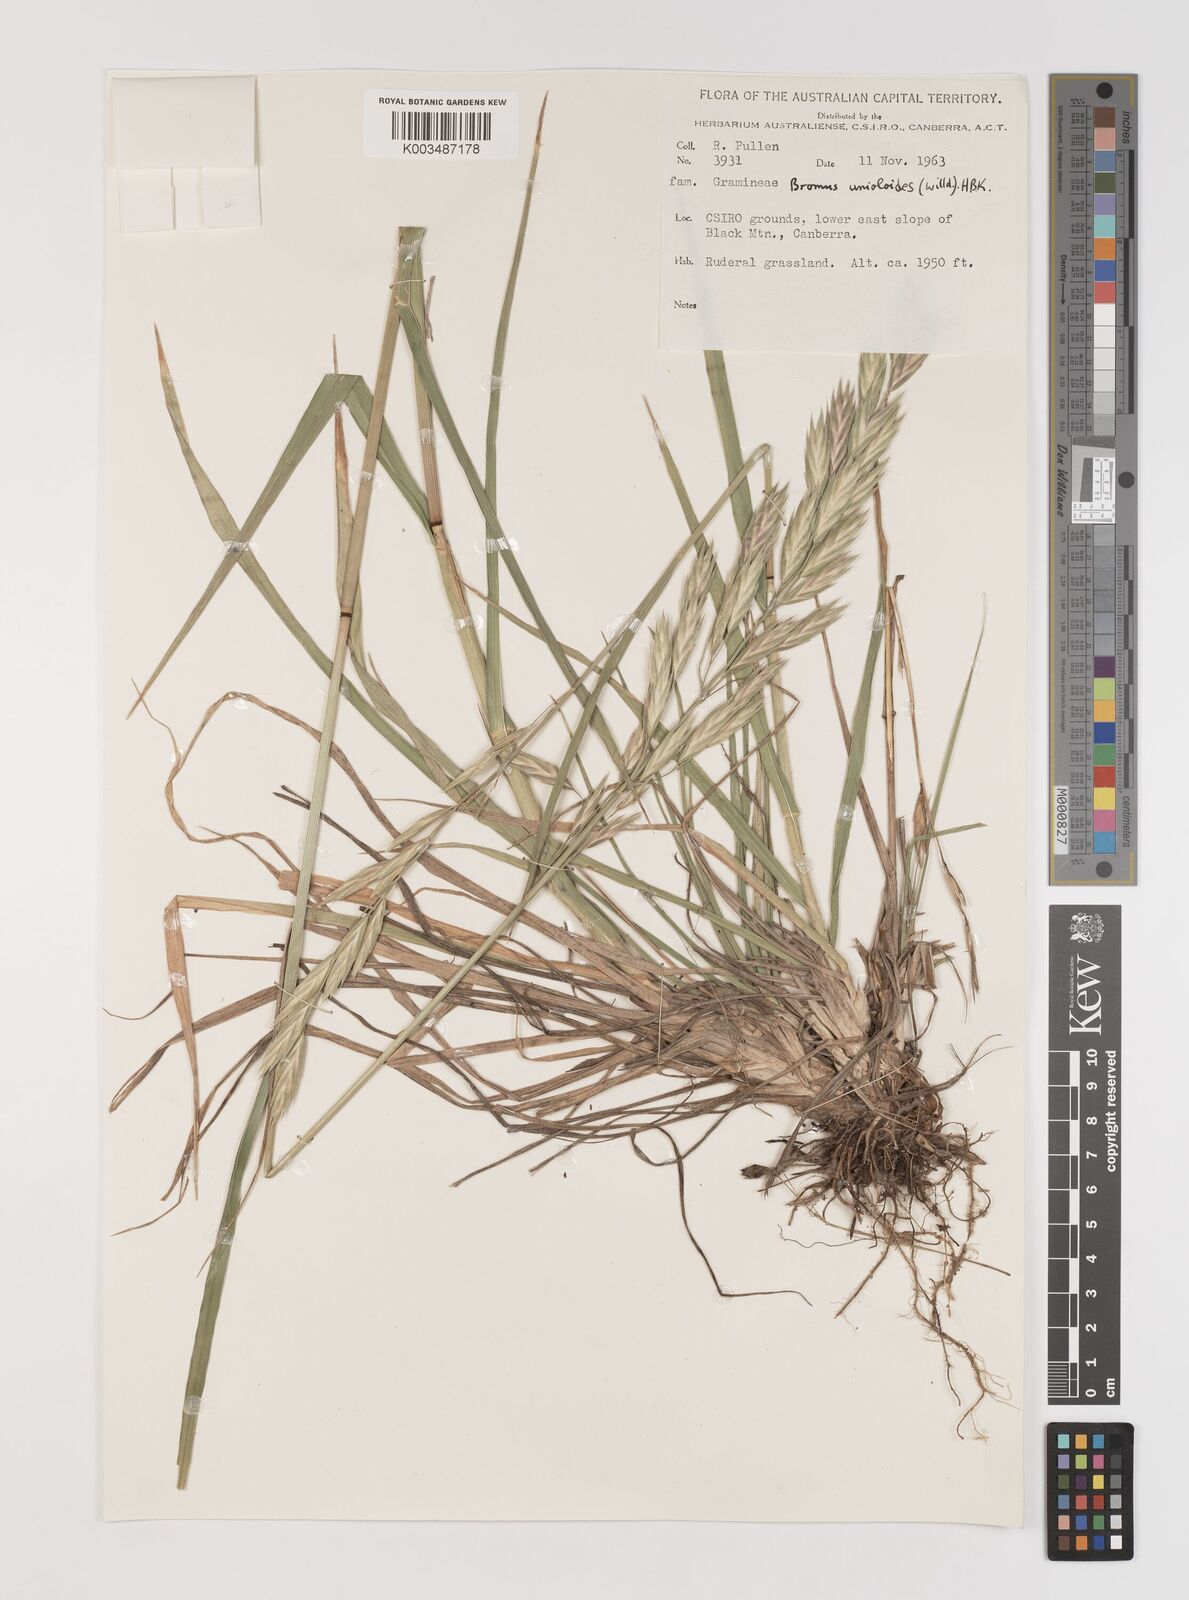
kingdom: Plantae
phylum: Tracheophyta
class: Liliopsida
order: Poales
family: Poaceae
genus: Bromus
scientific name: Bromus catharticus
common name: Rescuegrass
